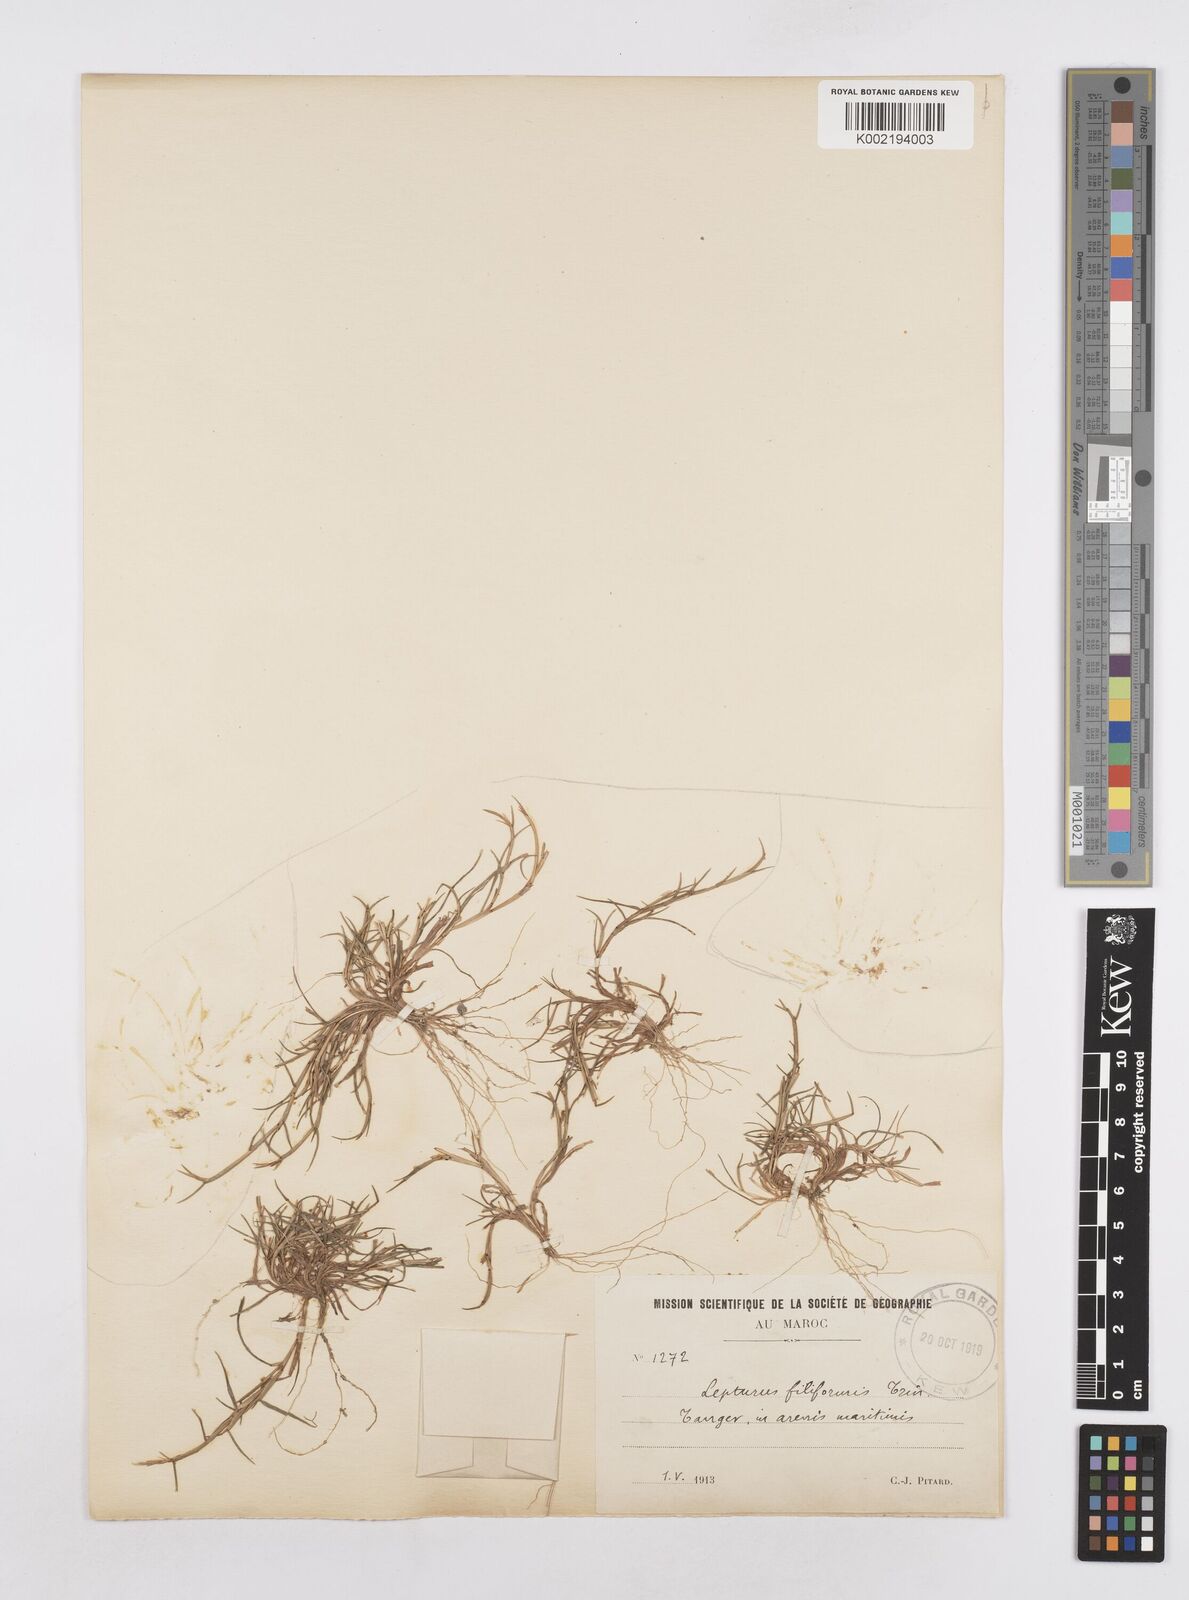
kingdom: Plantae
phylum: Tracheophyta
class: Liliopsida
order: Poales
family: Poaceae
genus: Parapholis
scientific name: Parapholis filiformis
